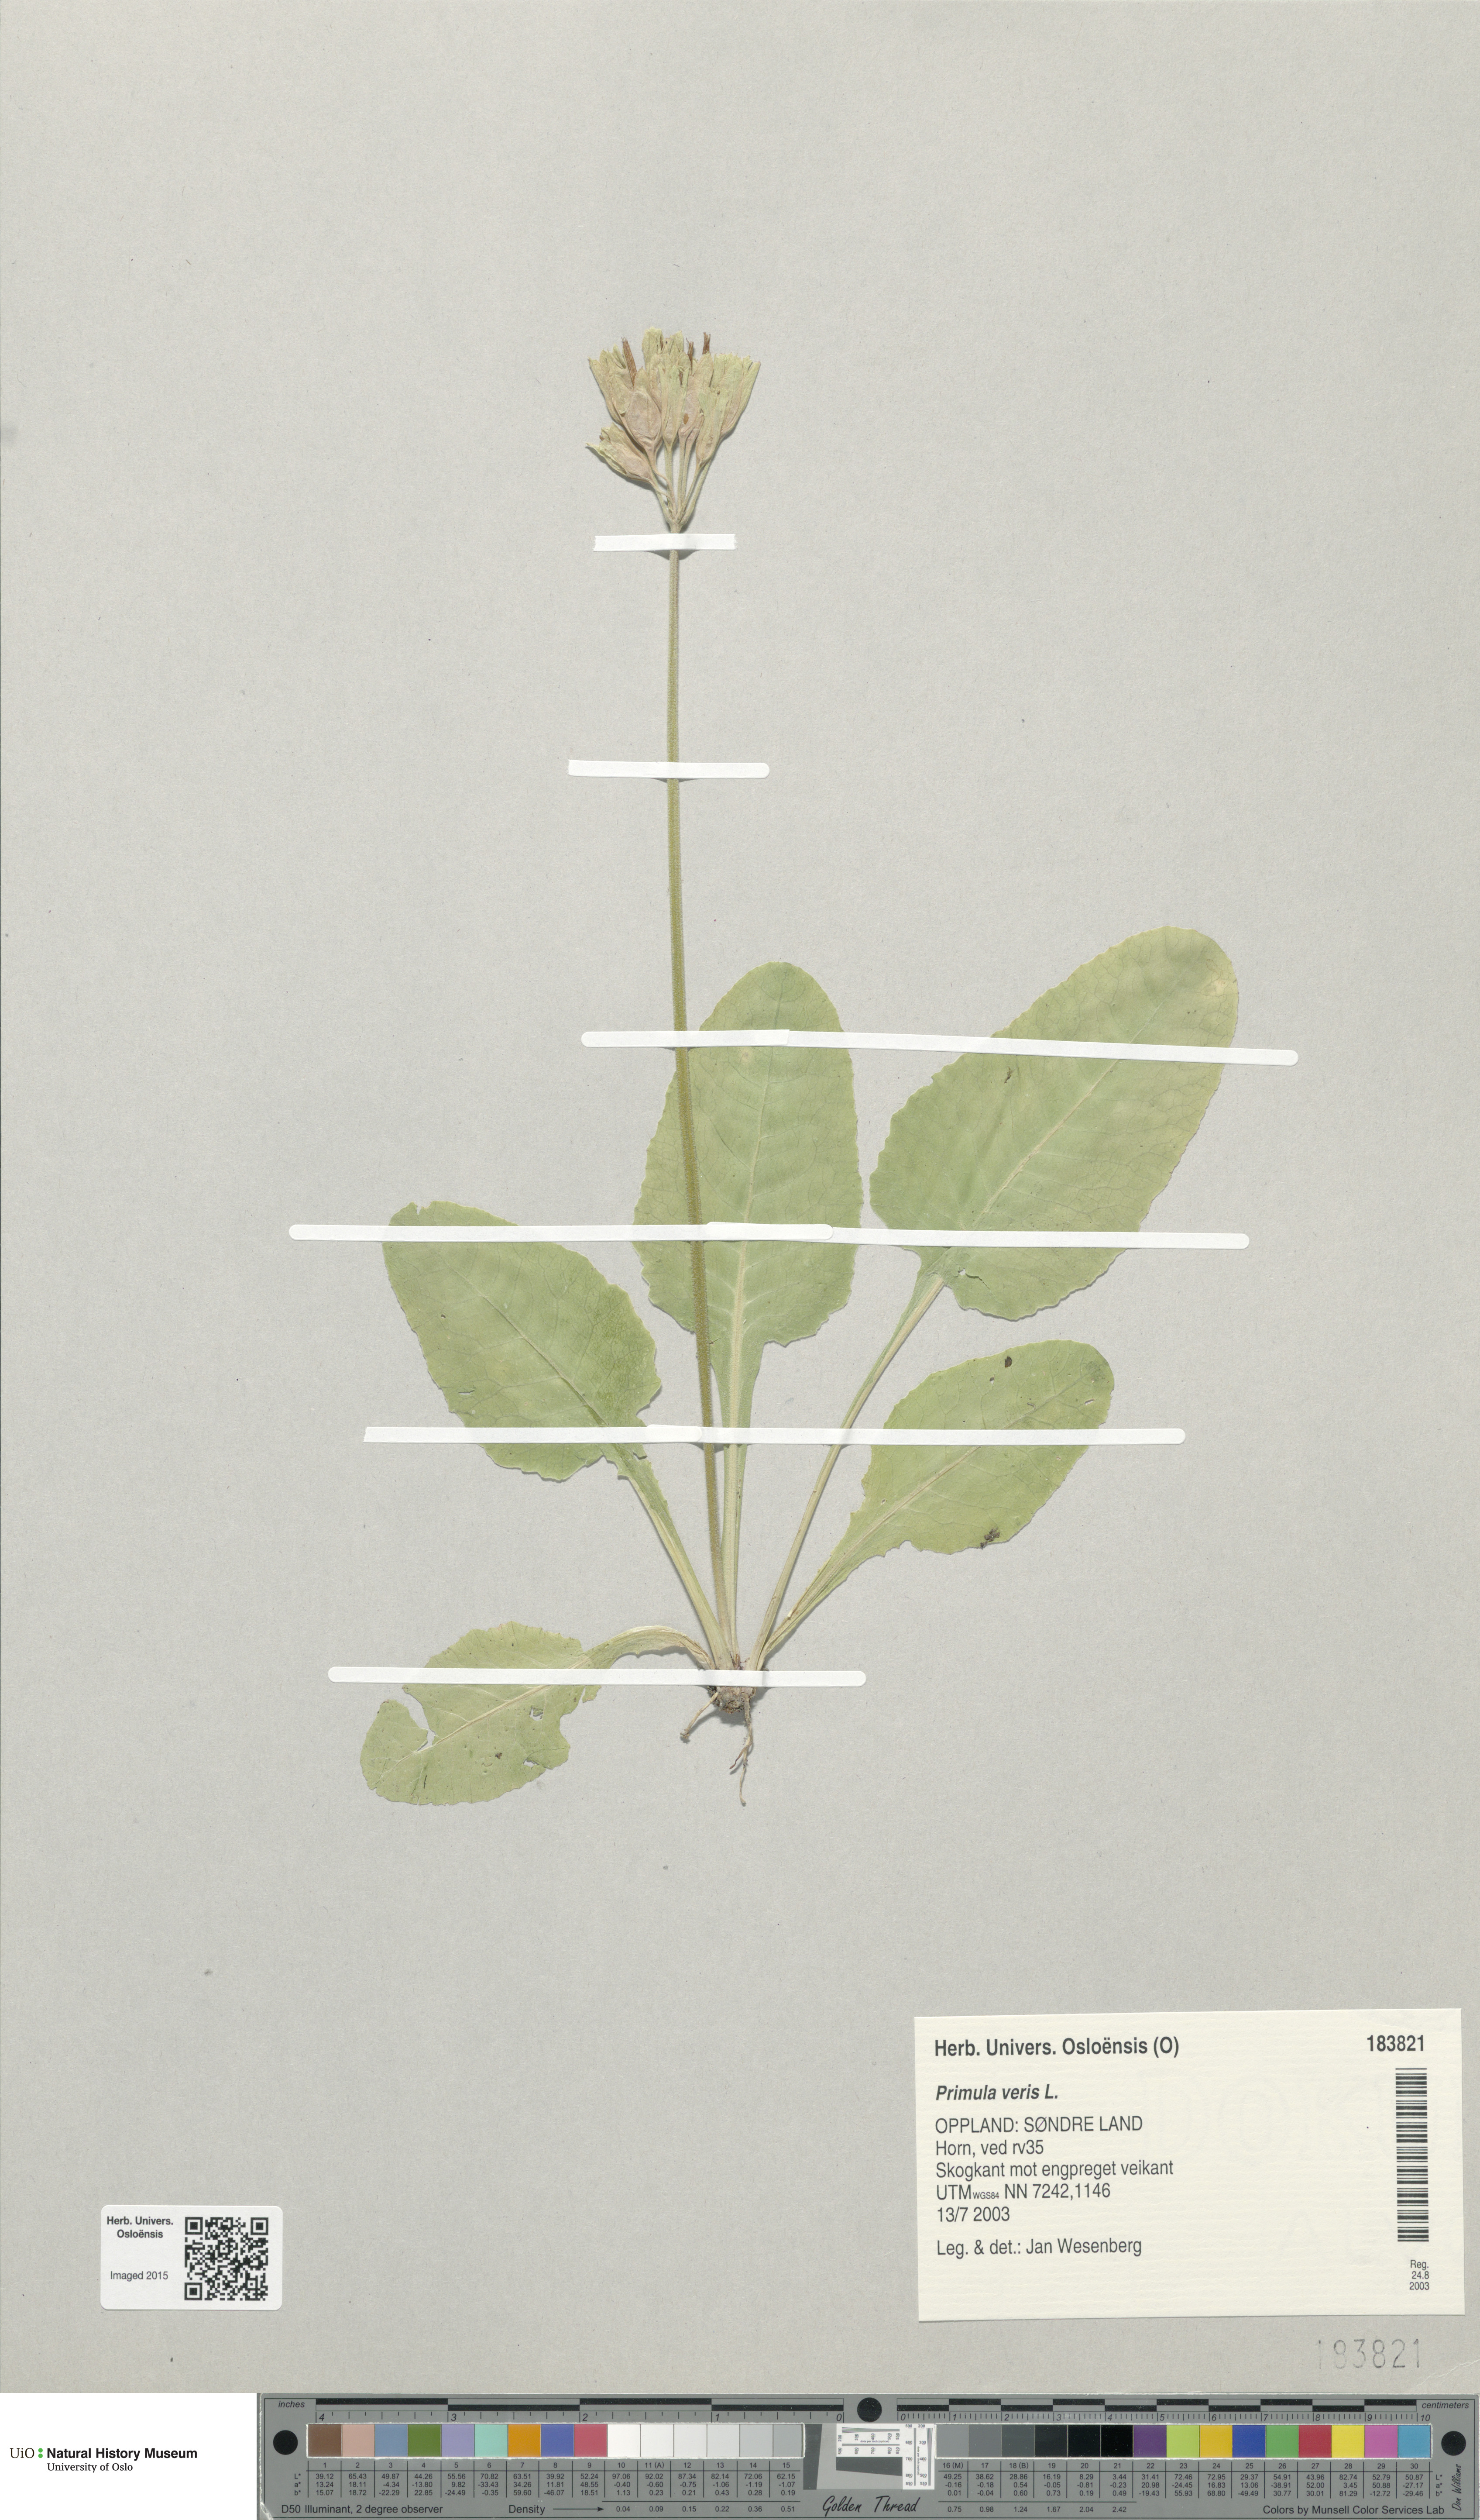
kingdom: Plantae
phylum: Tracheophyta
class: Magnoliopsida
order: Ericales
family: Primulaceae
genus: Primula
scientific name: Primula veris
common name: Cowslip
